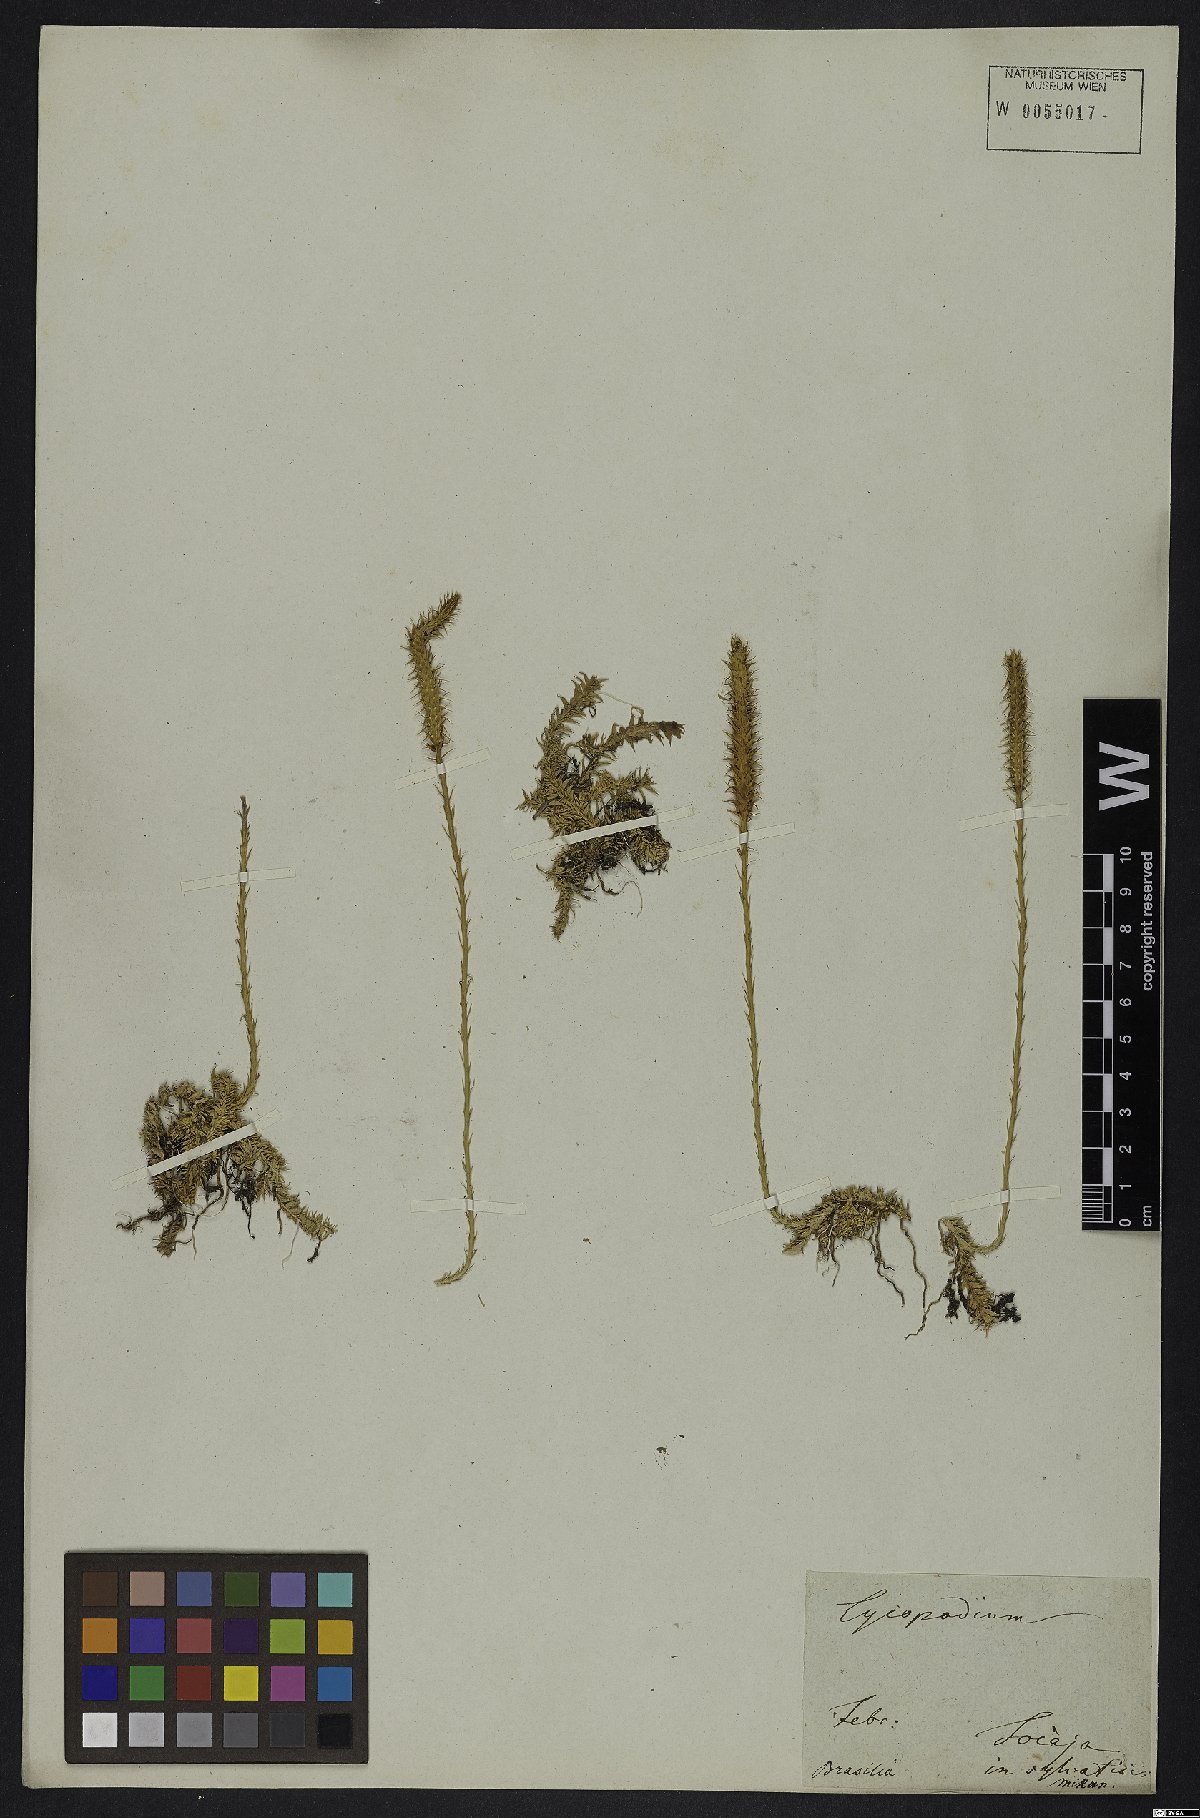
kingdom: Plantae
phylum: Tracheophyta
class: Lycopodiopsida
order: Lycopodiales
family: Lycopodiaceae
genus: Lycopodium
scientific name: Lycopodium
